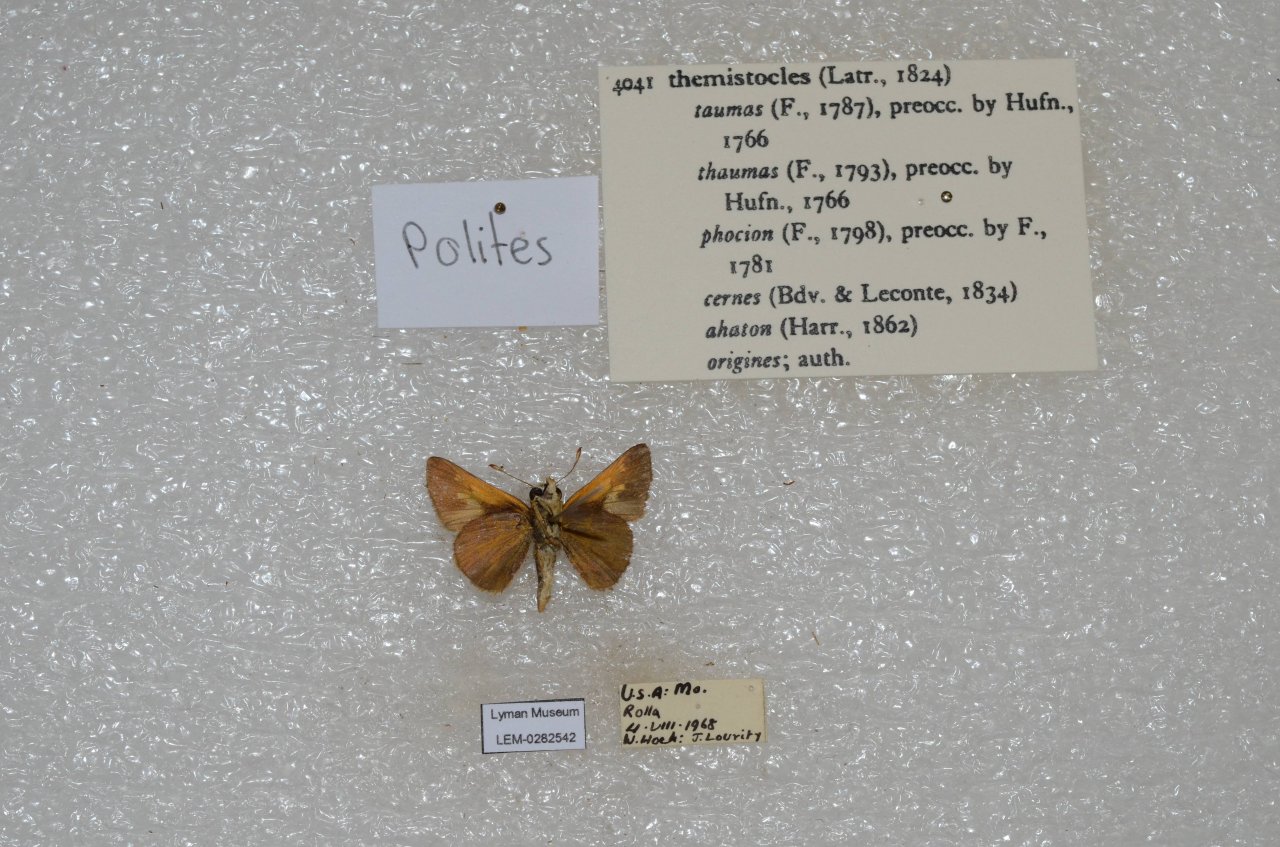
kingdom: Animalia
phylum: Arthropoda
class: Insecta
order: Lepidoptera
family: Hesperiidae
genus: Polites
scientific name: Polites themistocles
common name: Tawny-edged Skipper
